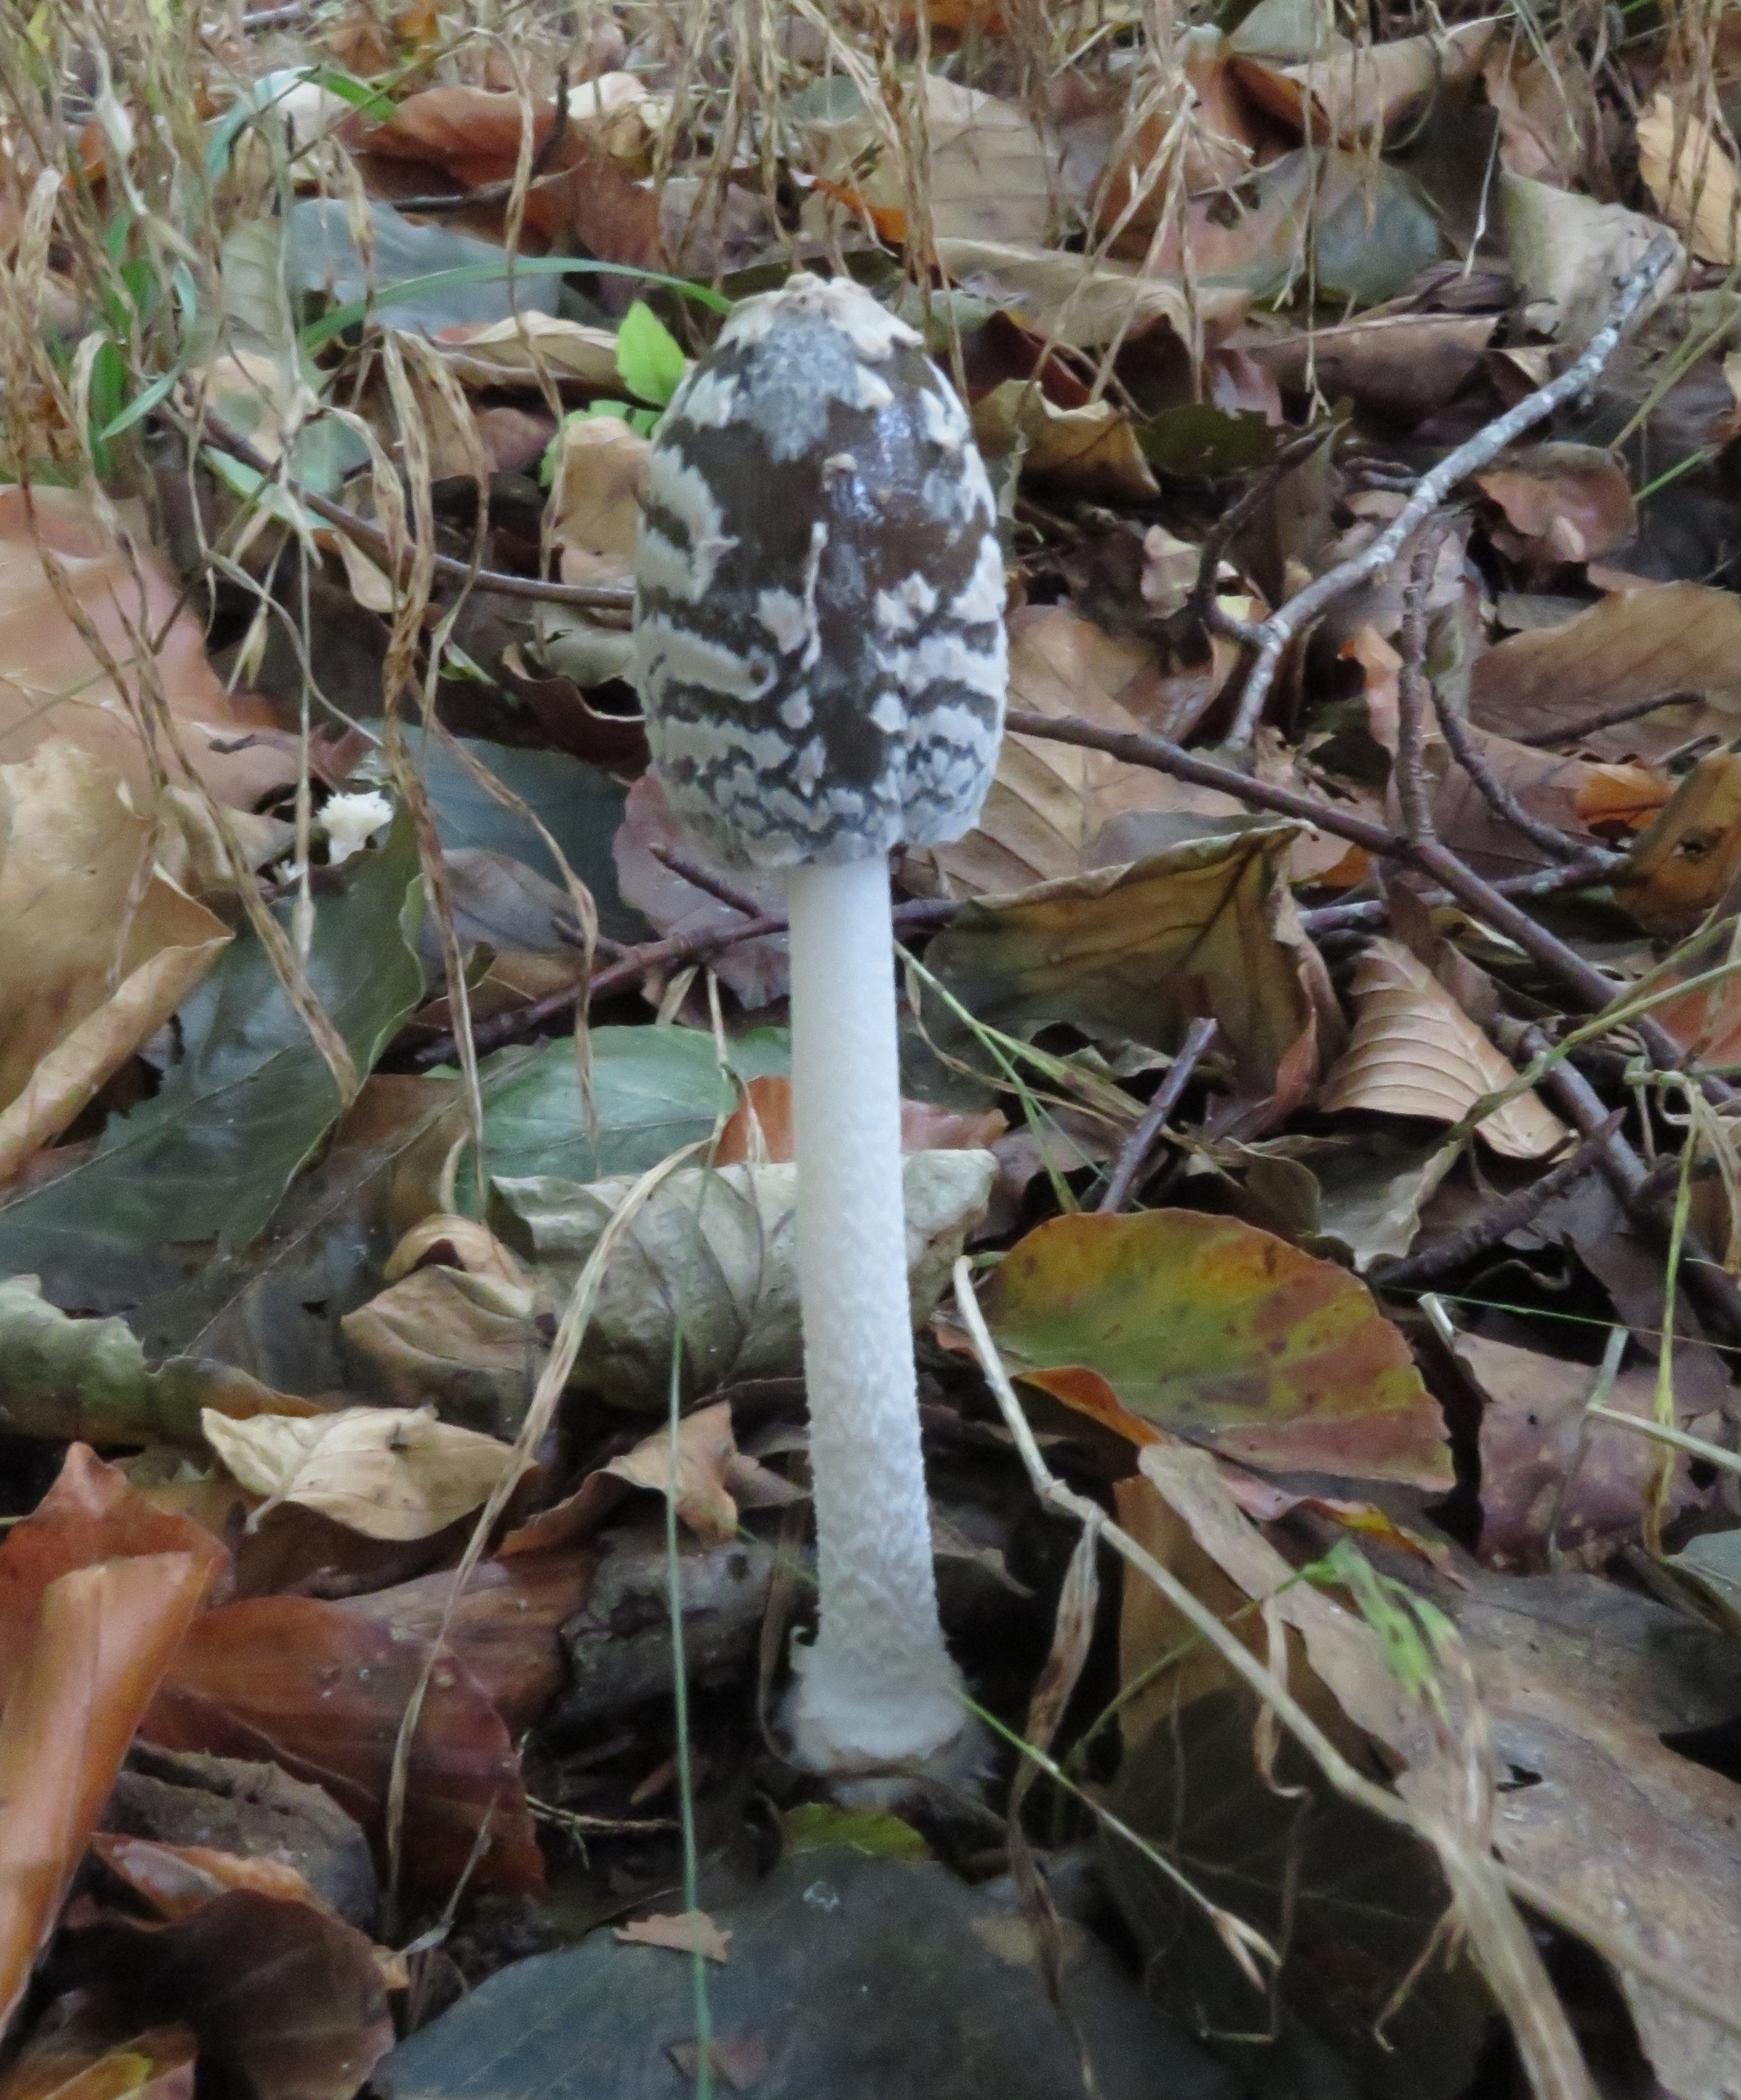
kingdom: Fungi
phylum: Basidiomycota
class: Agaricomycetes
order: Agaricales
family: Psathyrellaceae
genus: Coprinopsis
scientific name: Coprinopsis picacea
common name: Skade-blækhat
